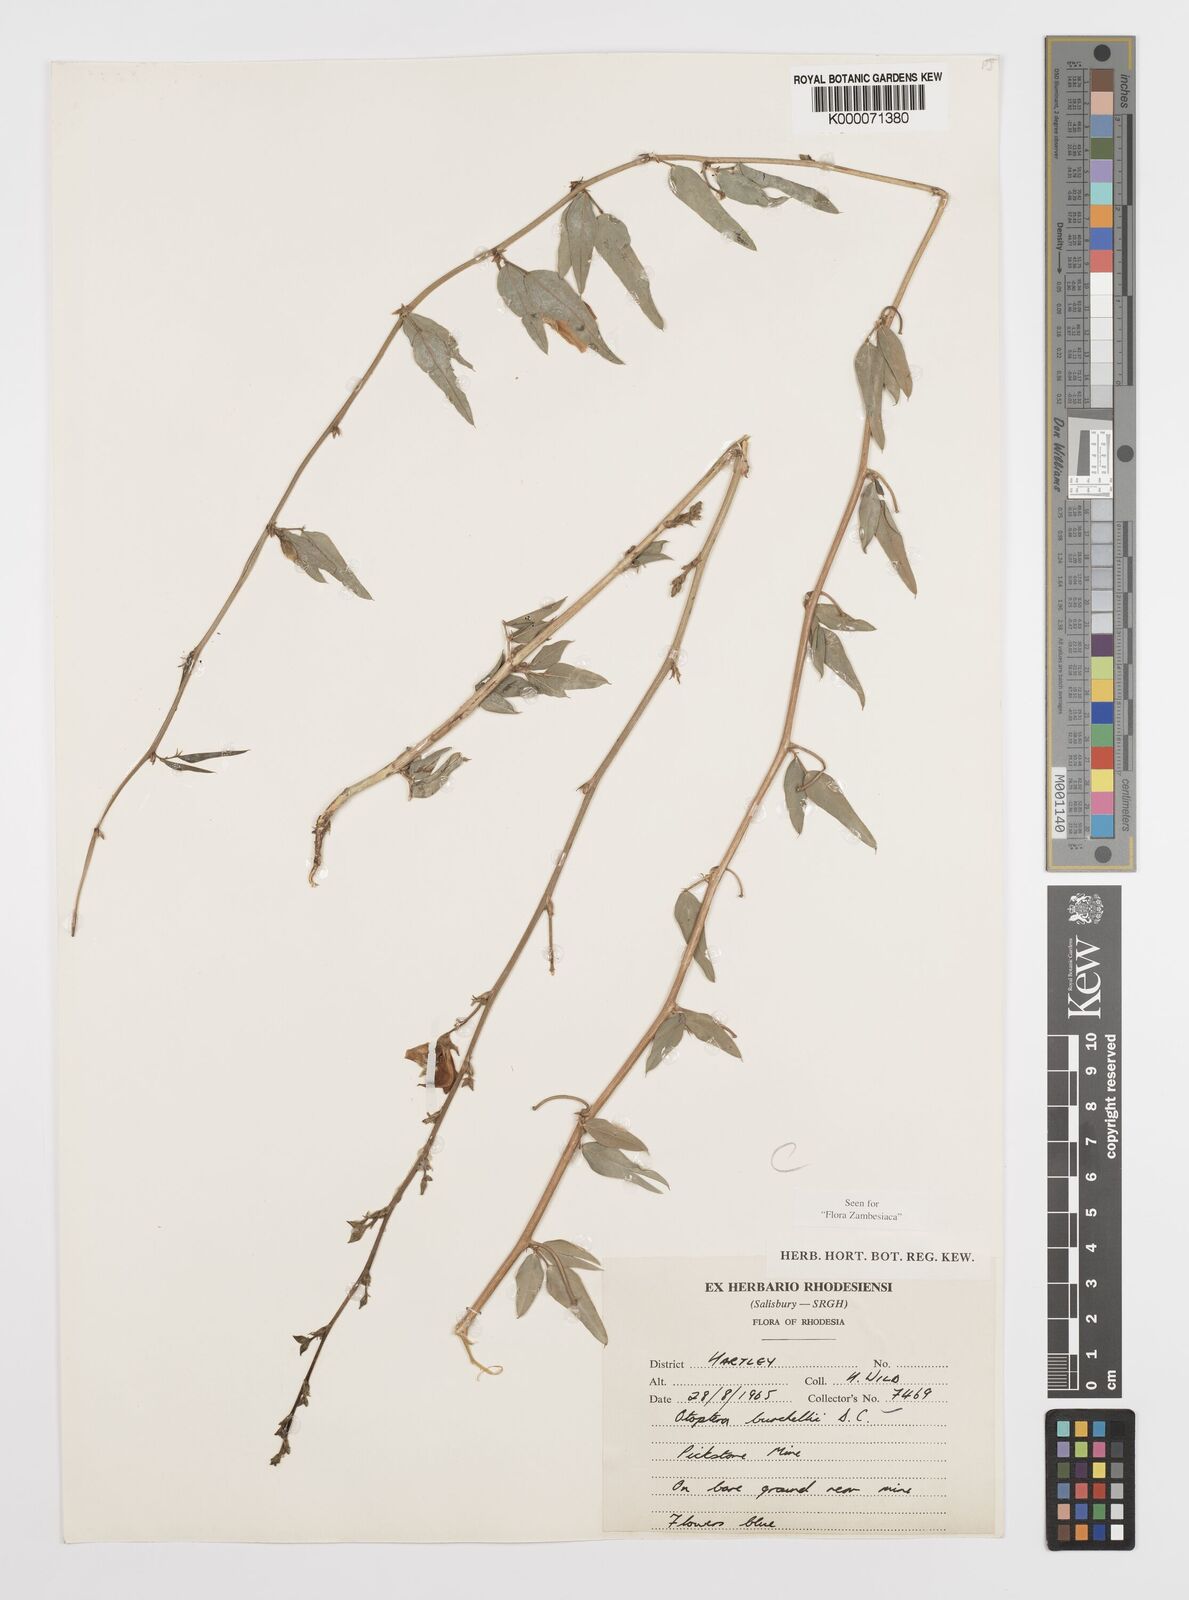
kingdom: Plantae
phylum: Tracheophyta
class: Magnoliopsida
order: Fabales
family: Fabaceae
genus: Otoptera
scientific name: Otoptera burchellii
